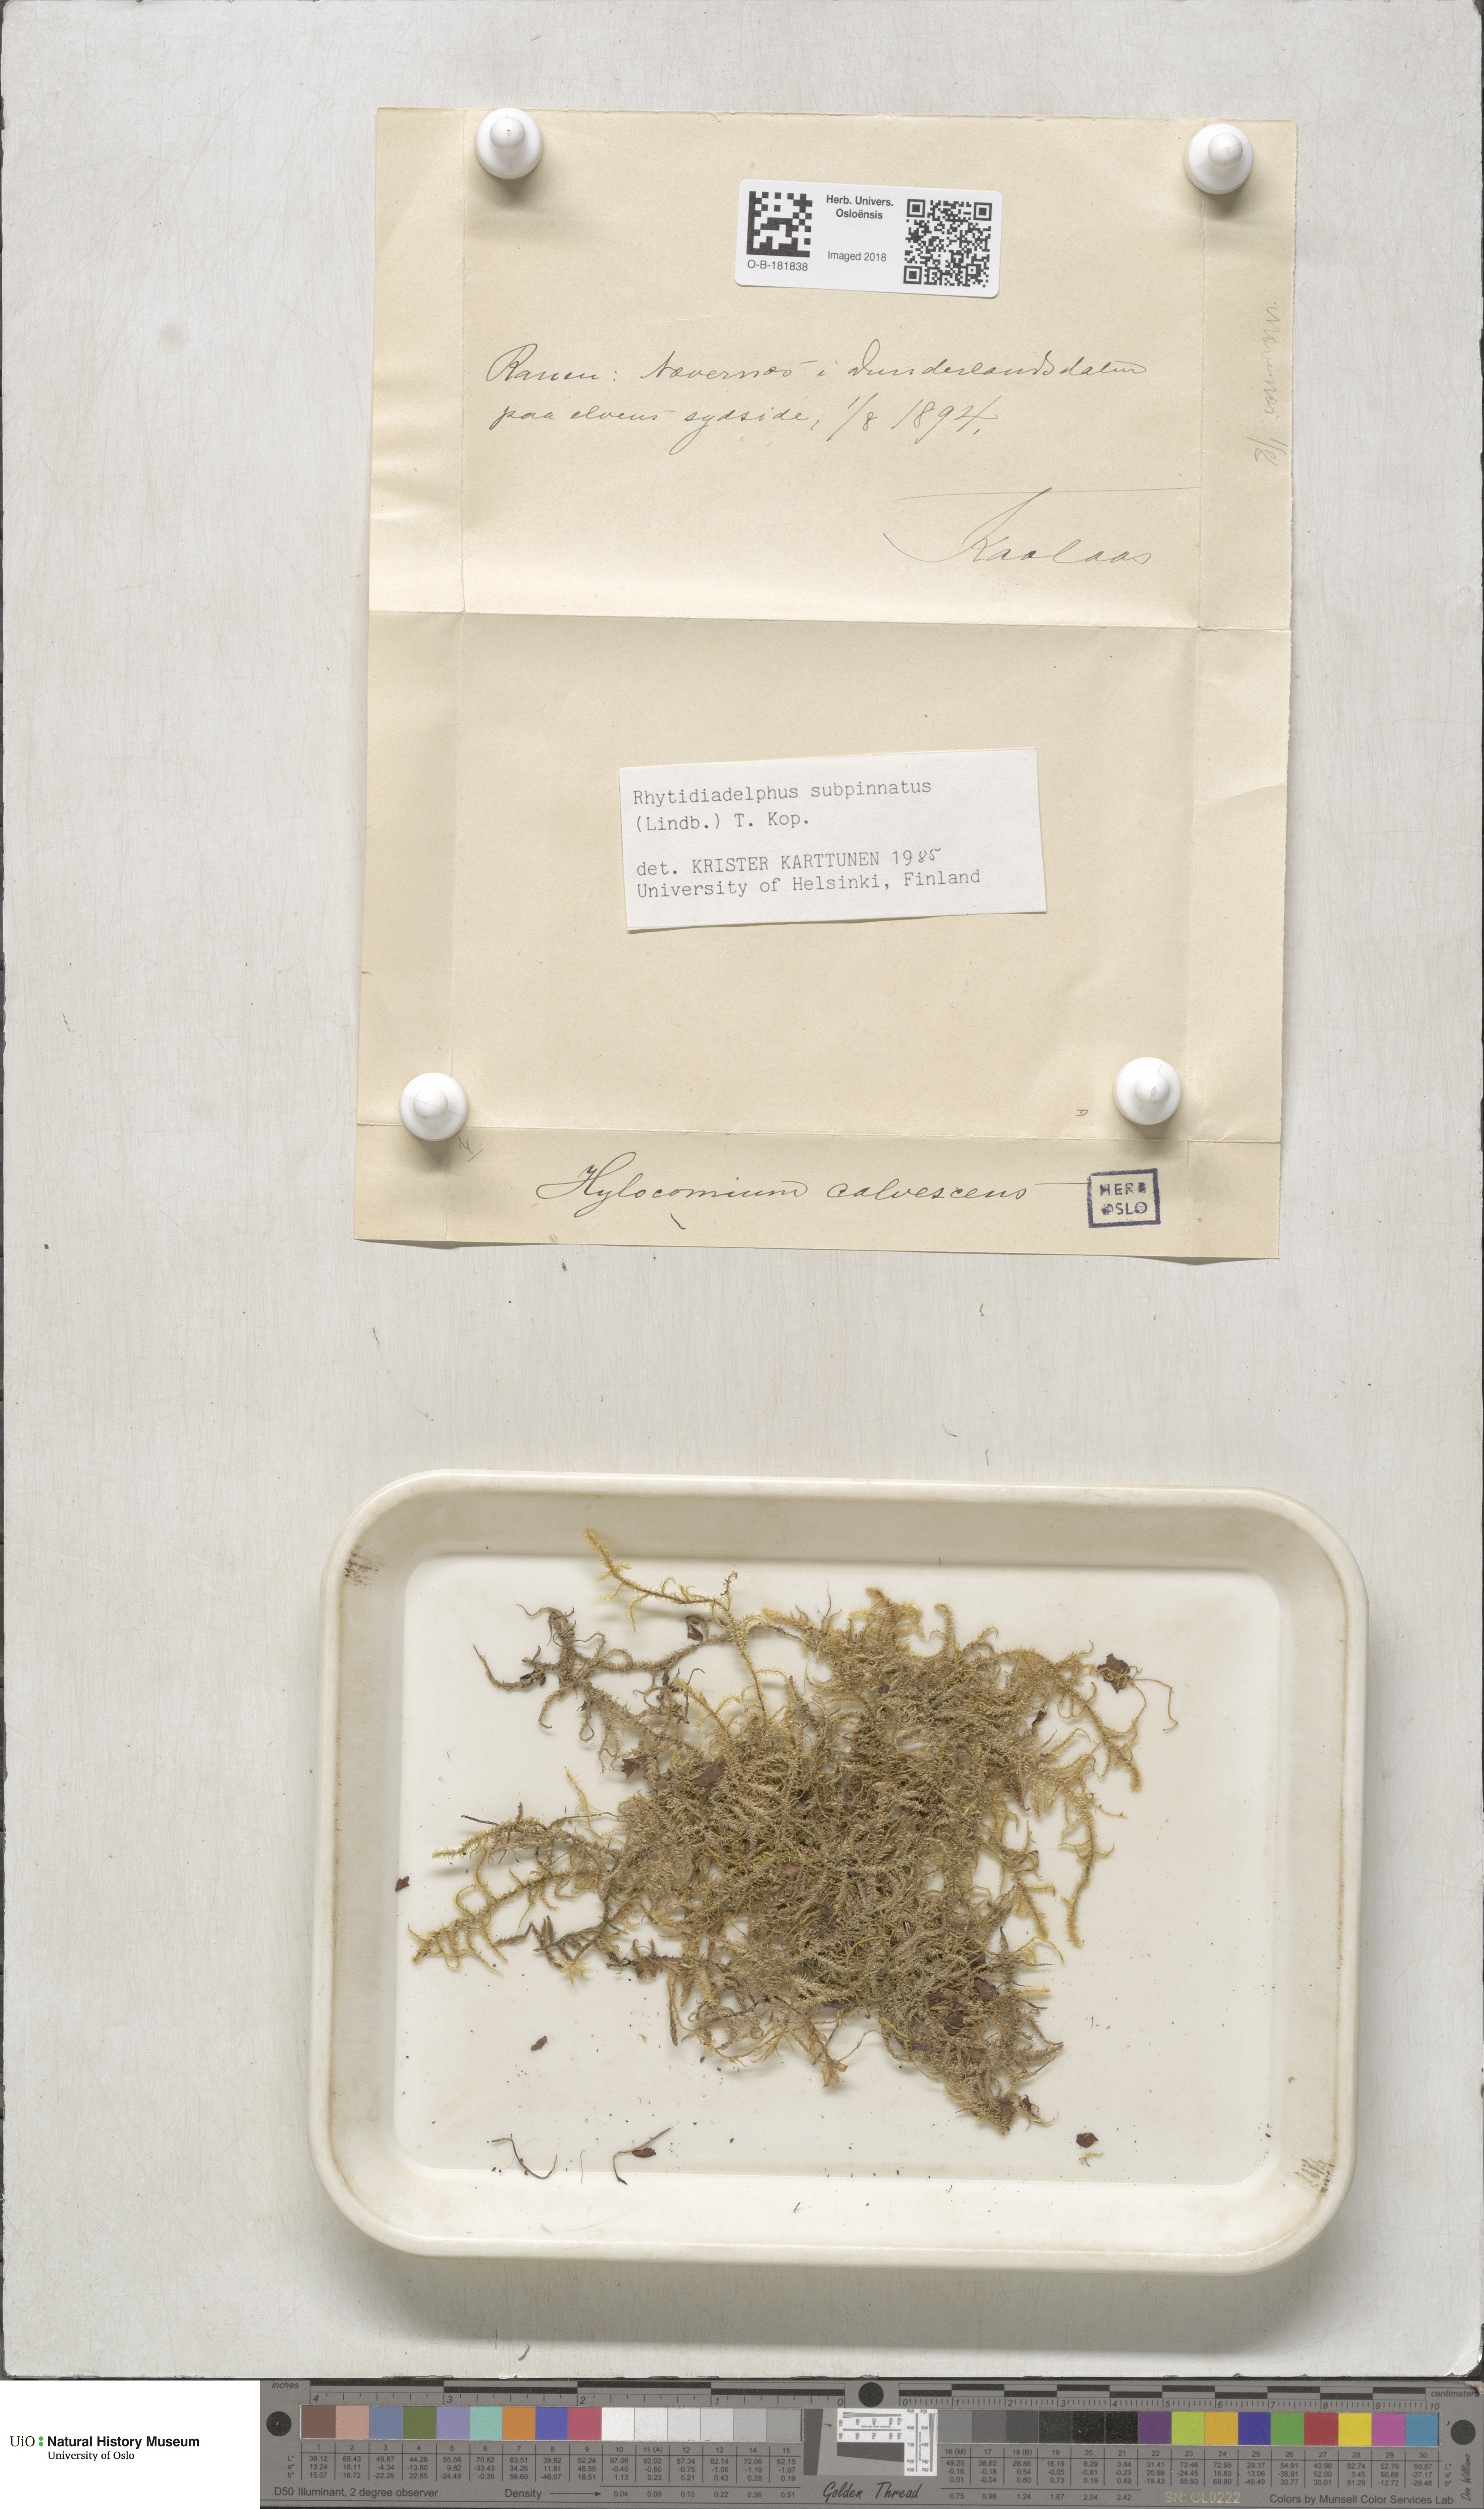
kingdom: Plantae
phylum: Bryophyta
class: Bryopsida
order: Hypnales
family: Hylocomiaceae
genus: Rhytidiadelphus
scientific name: Rhytidiadelphus subpinnatus
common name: Subpinnate gooseneck moss
